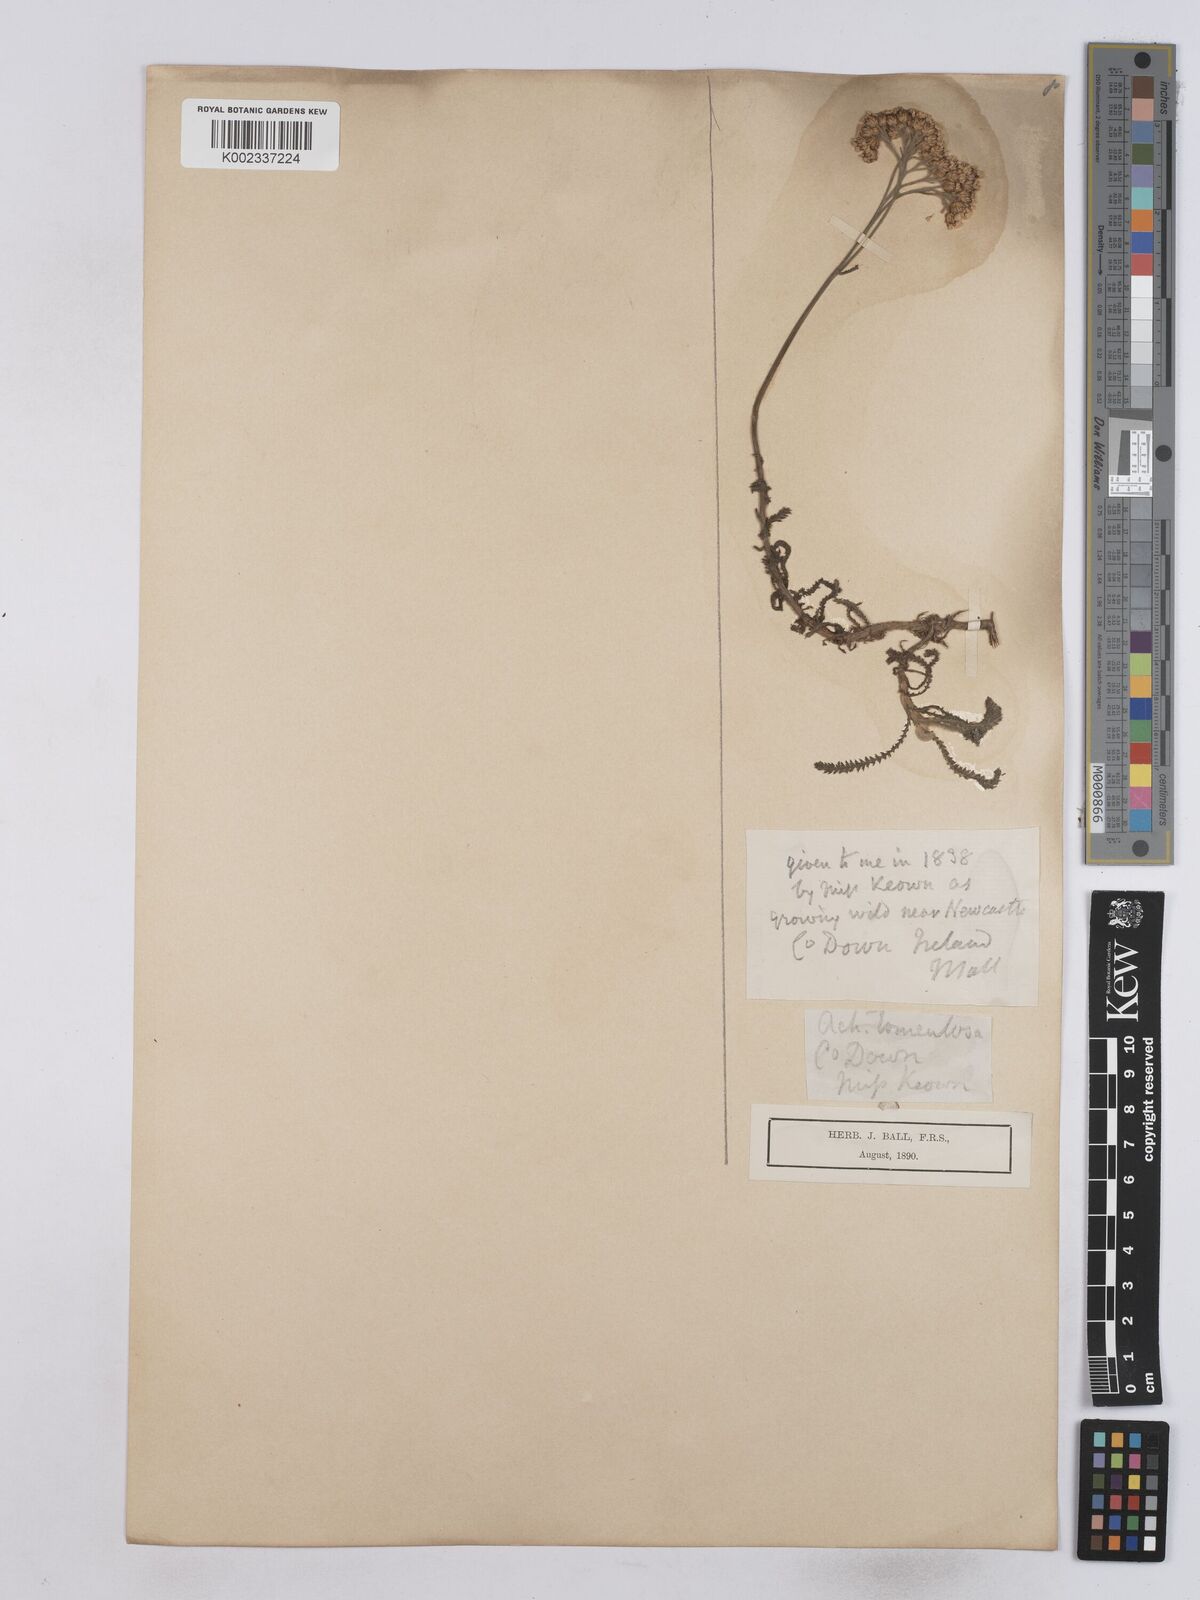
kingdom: Plantae
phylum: Tracheophyta
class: Magnoliopsida
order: Asterales
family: Asteraceae
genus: Achillea
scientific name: Achillea tomentosa
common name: Yellow milfoil
